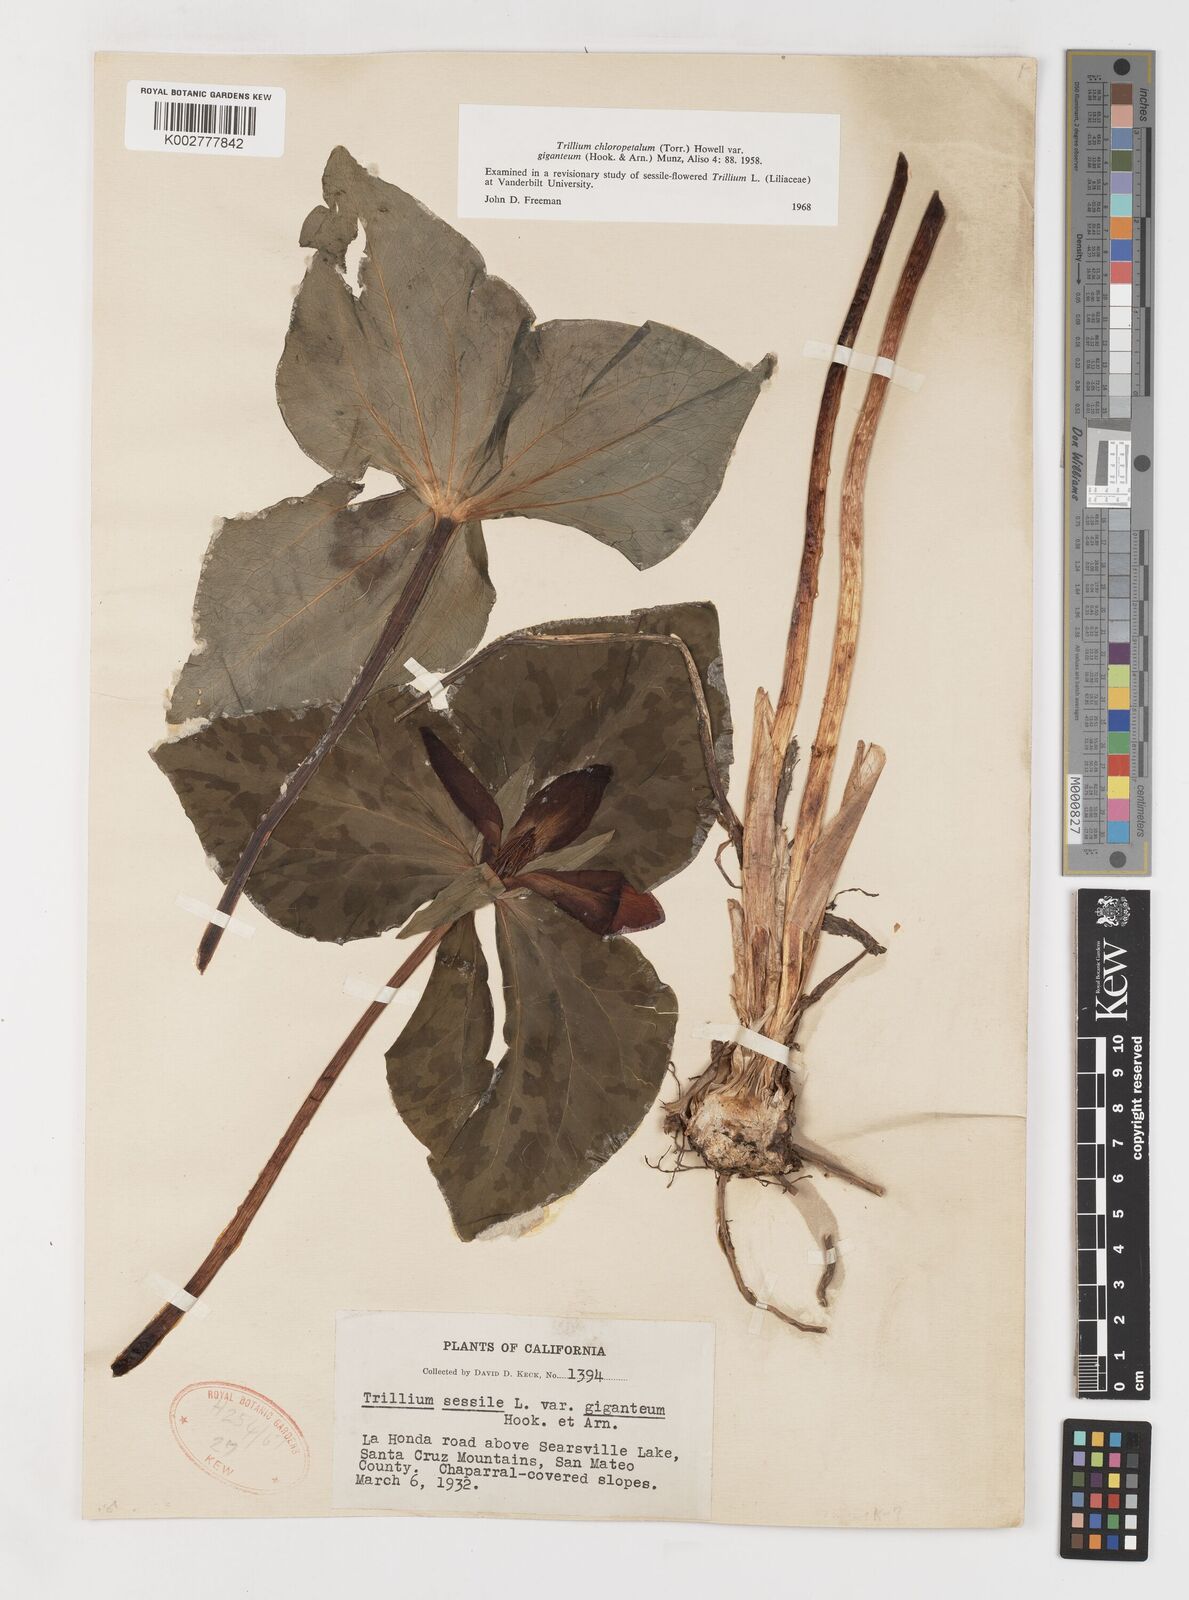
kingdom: Plantae
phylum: Tracheophyta
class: Liliopsida
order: Liliales
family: Melanthiaceae
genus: Trillium
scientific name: Trillium chloropetalum
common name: Giant trillium
